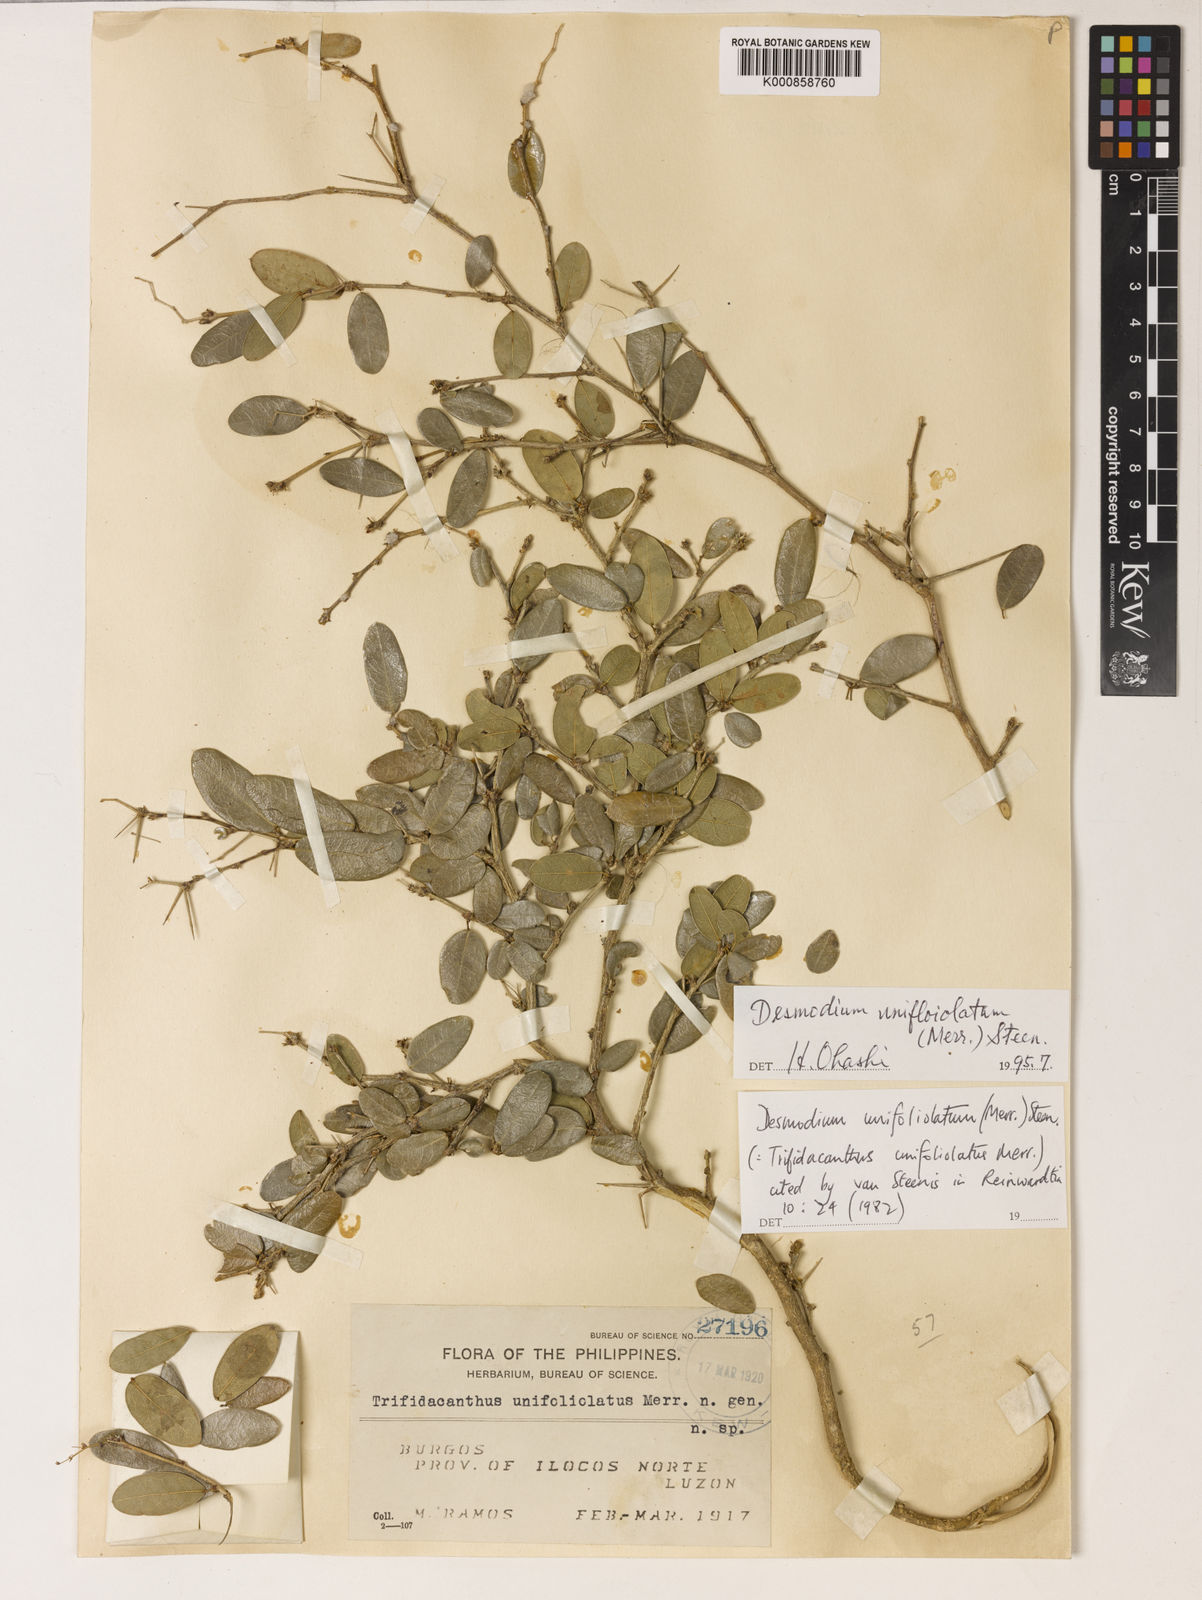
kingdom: Plantae
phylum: Tracheophyta
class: Magnoliopsida
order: Fabales
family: Fabaceae
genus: Trifidacanthus
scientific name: Trifidacanthus unifoliolatus
